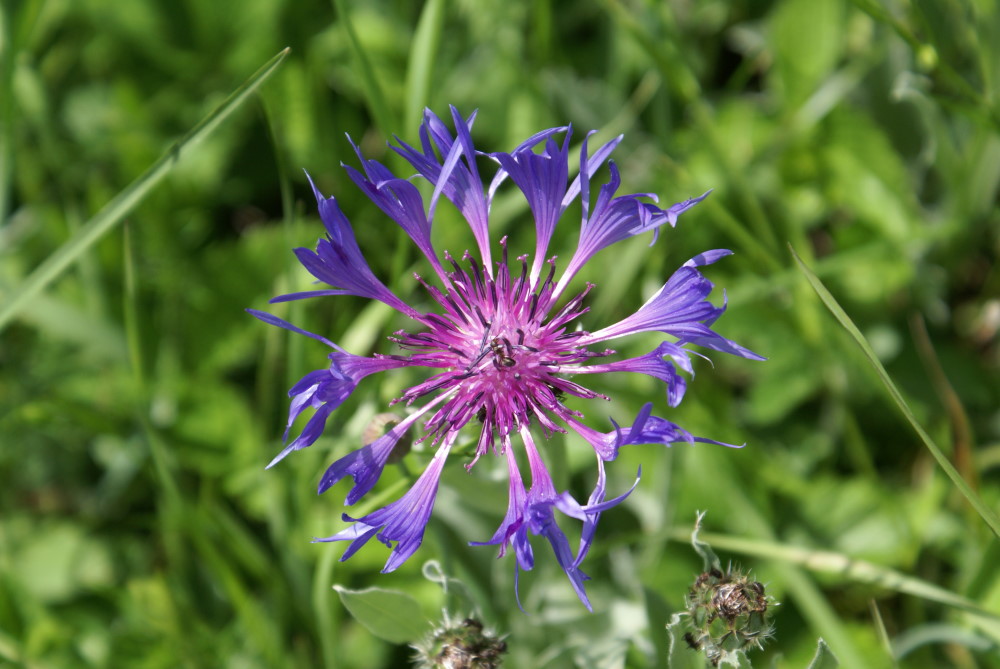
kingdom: Plantae
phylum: Tracheophyta
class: Magnoliopsida
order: Asterales
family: Asteraceae
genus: Centaurea
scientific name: Centaurea montana
